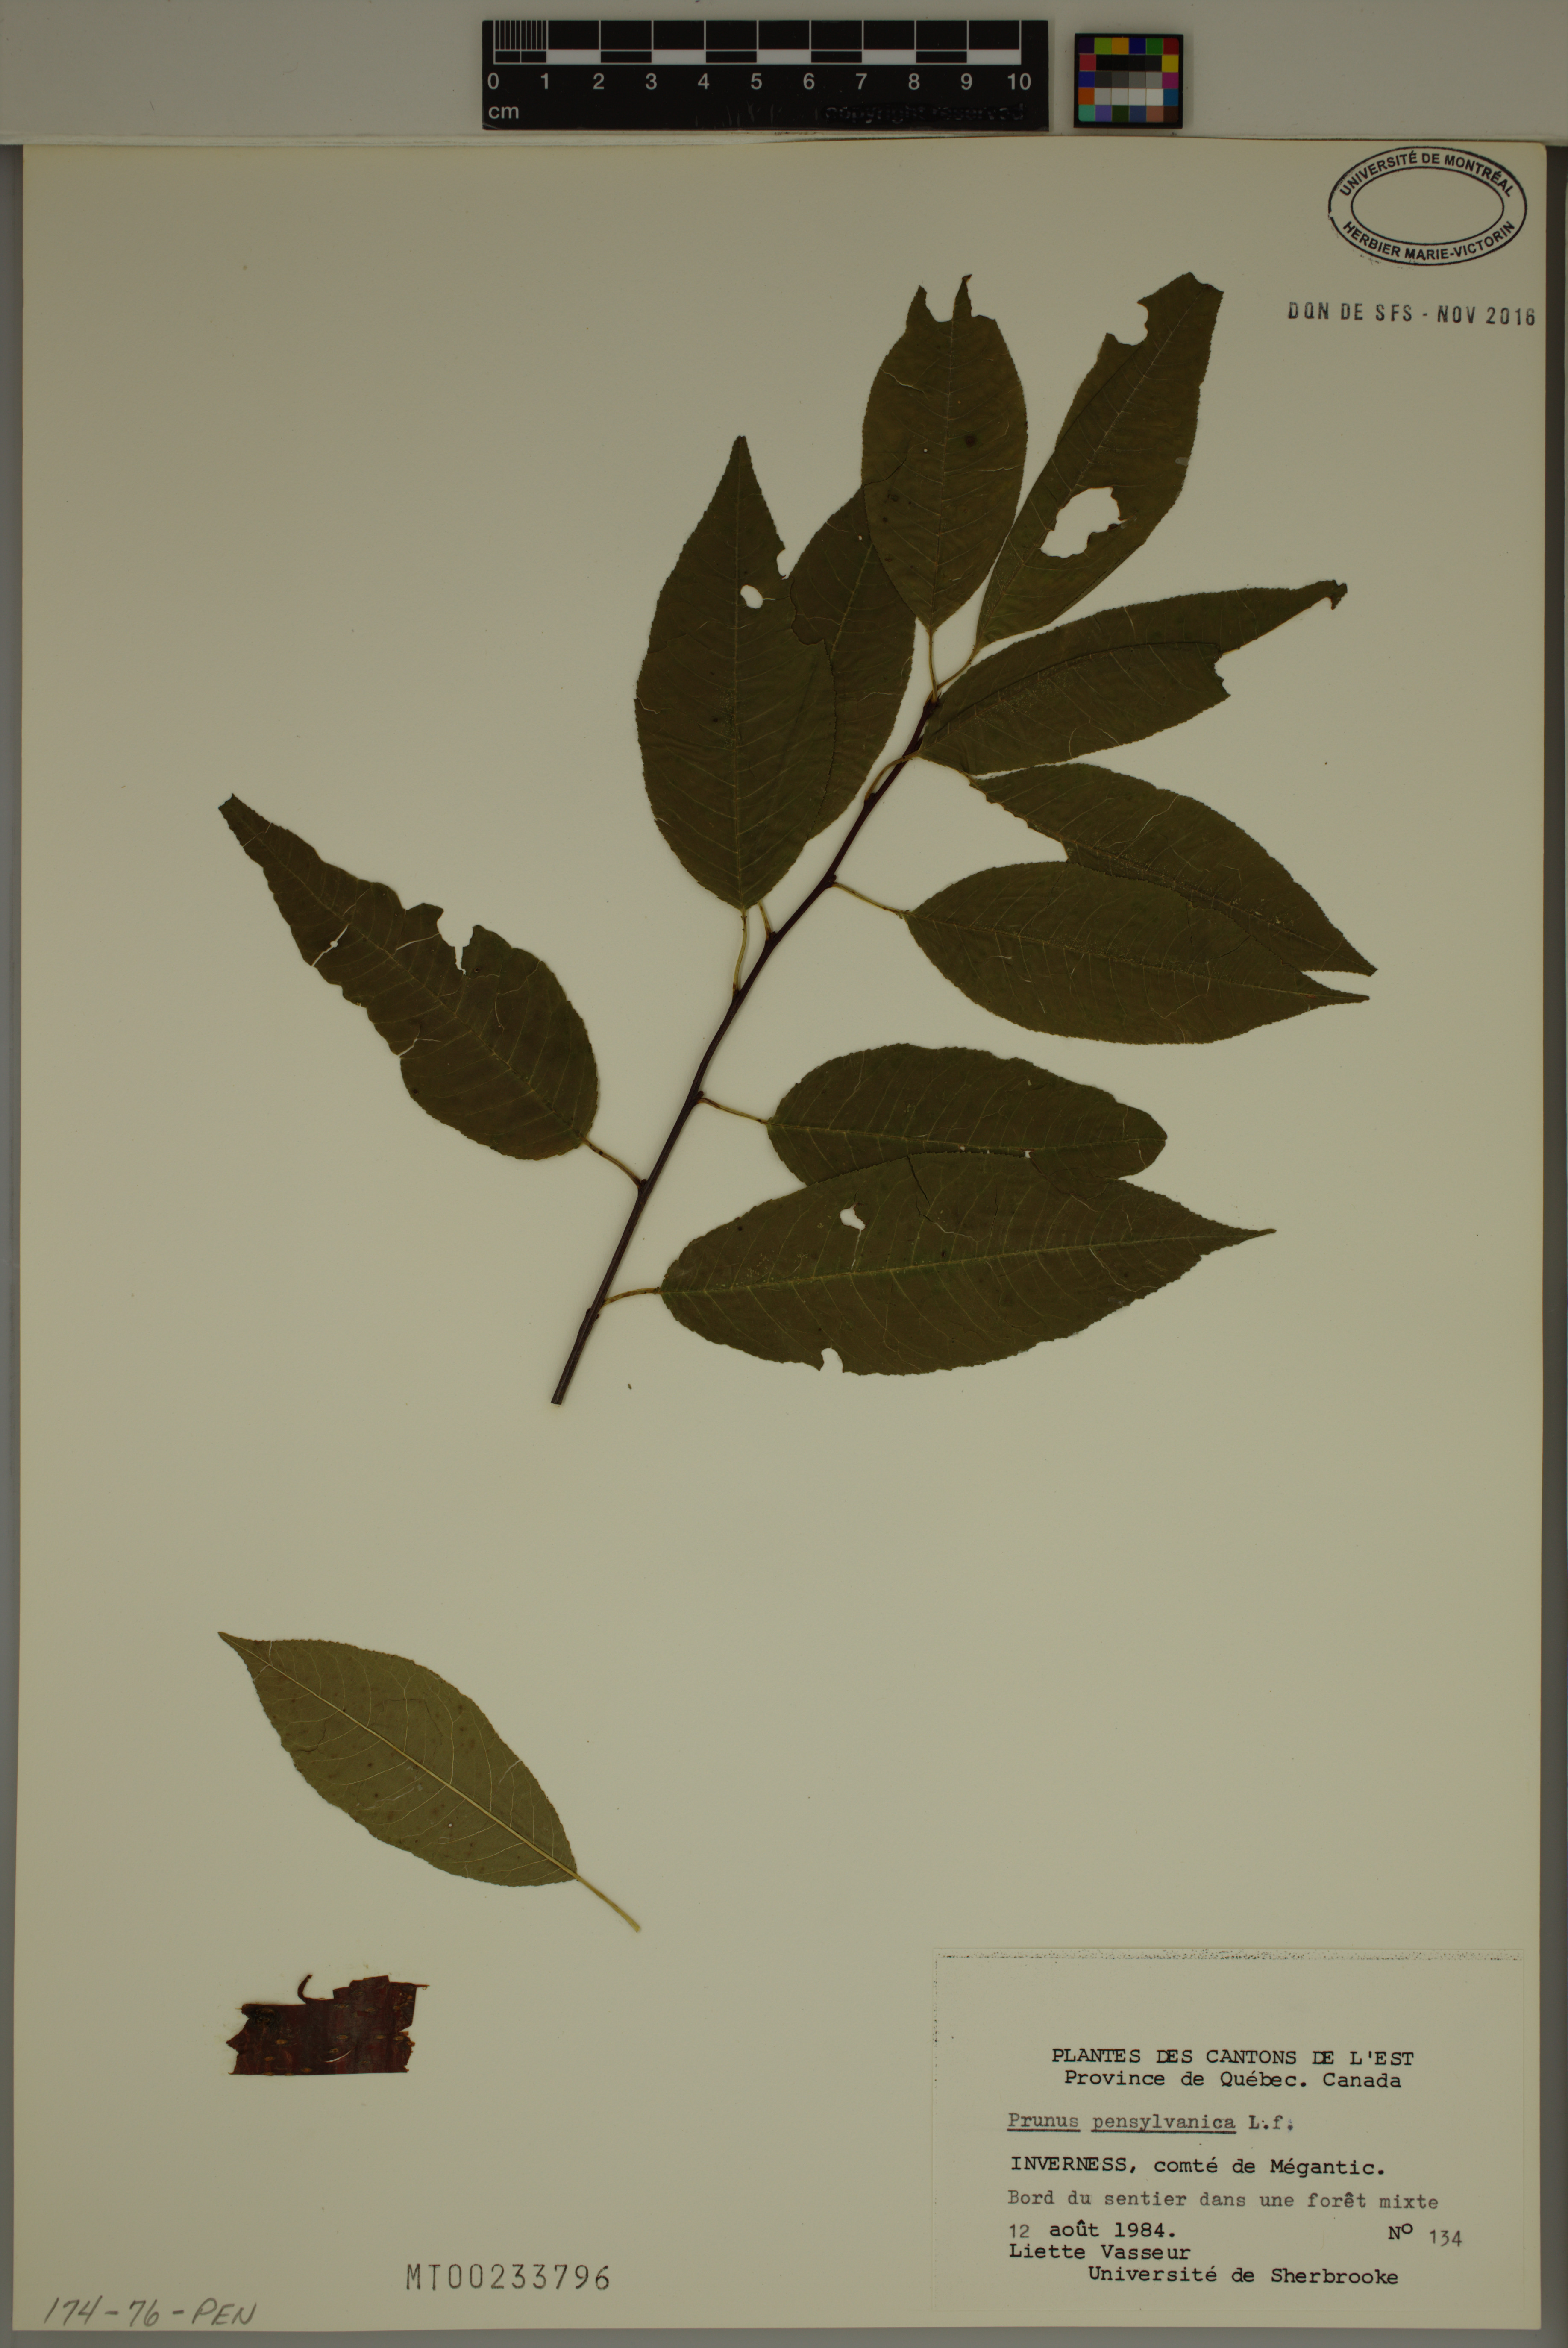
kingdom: Plantae
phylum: Tracheophyta
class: Magnoliopsida
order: Rosales
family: Rosaceae
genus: Prunus
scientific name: Prunus pensylvanica
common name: Pin cherry
